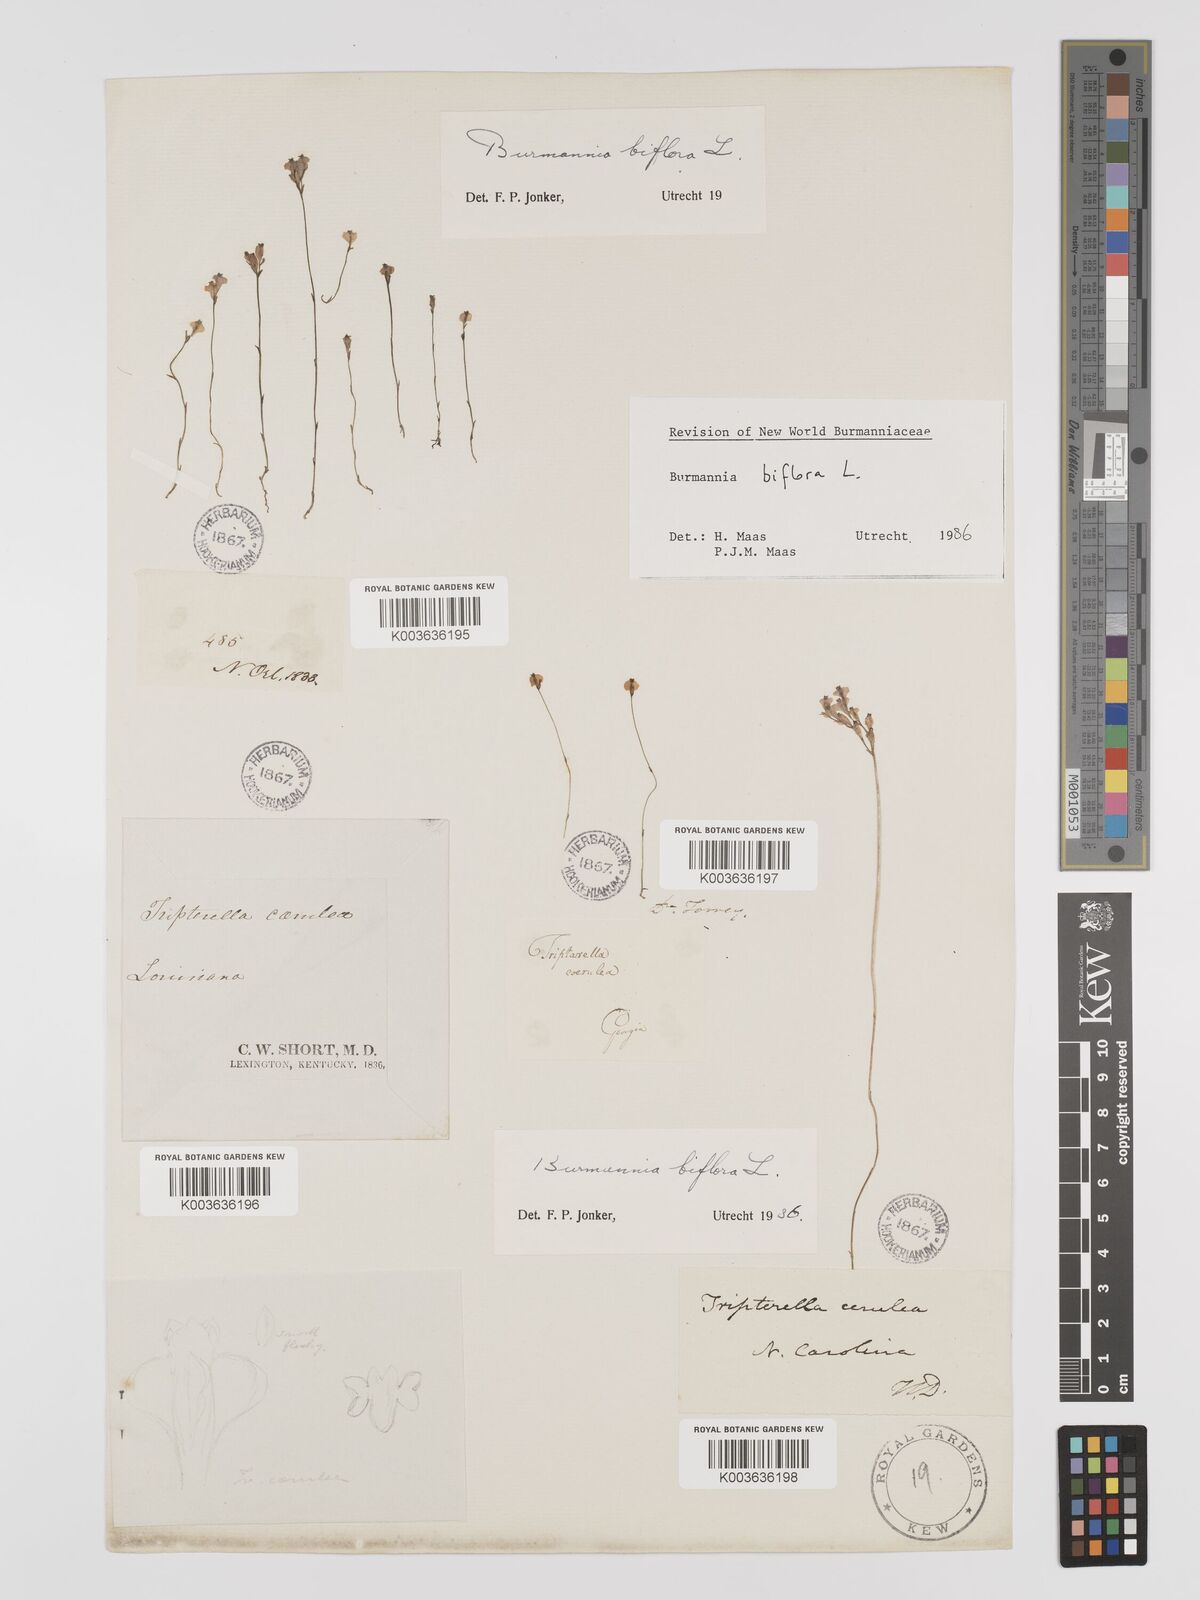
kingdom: Plantae
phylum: Tracheophyta
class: Liliopsida
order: Dioscoreales
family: Burmanniaceae
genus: Burmannia
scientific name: Burmannia biflora
